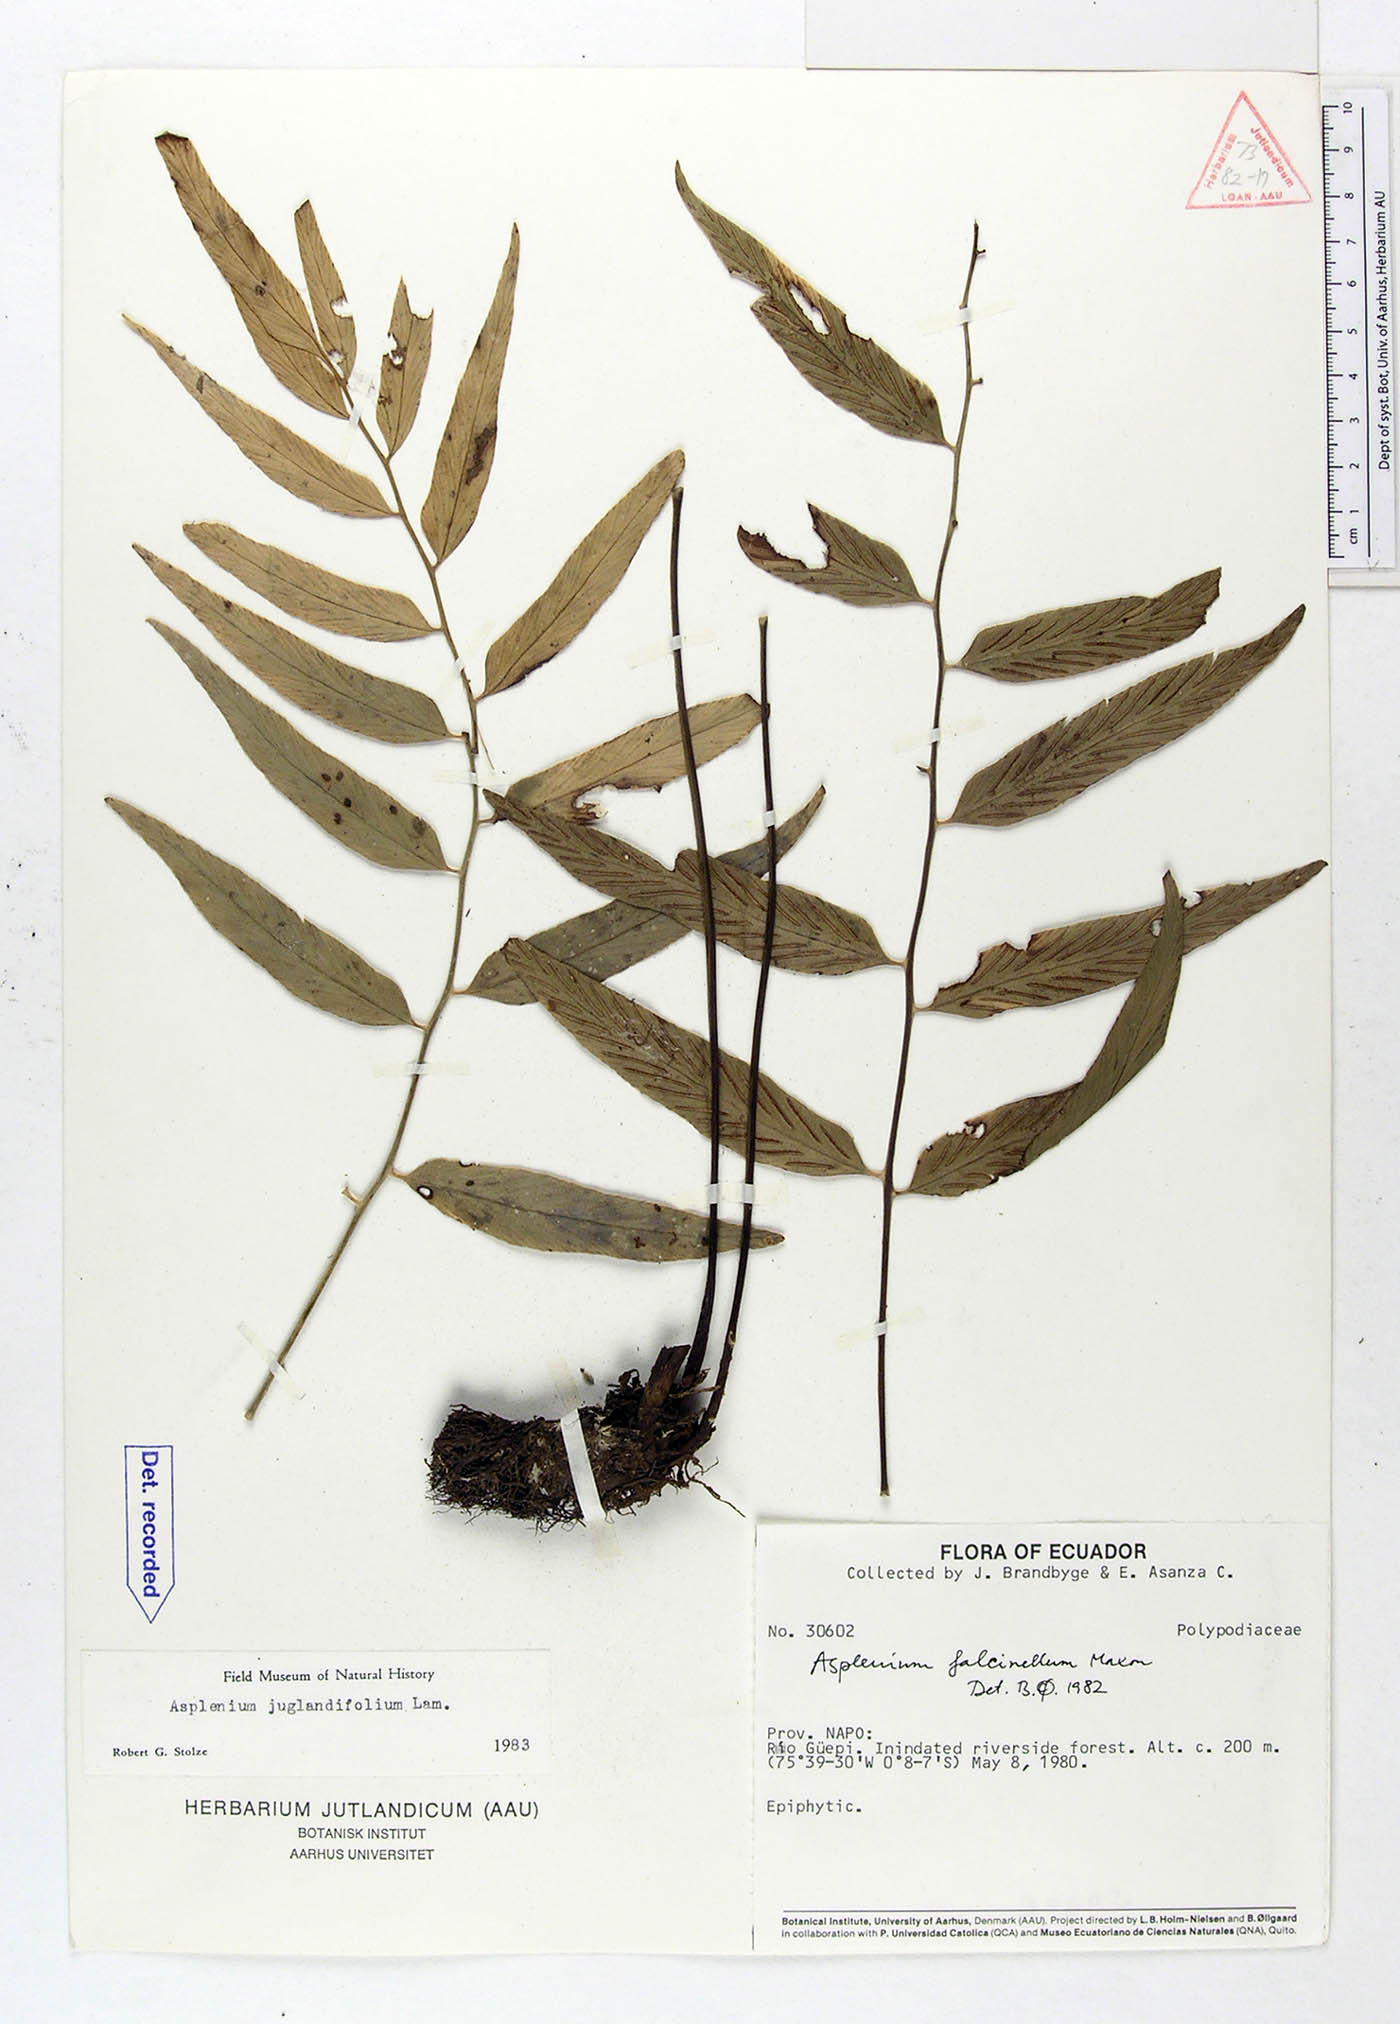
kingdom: Plantae
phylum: Tracheophyta
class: Polypodiopsida
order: Polypodiales
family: Aspleniaceae
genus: Asplenium
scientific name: Asplenium juglandifolium
